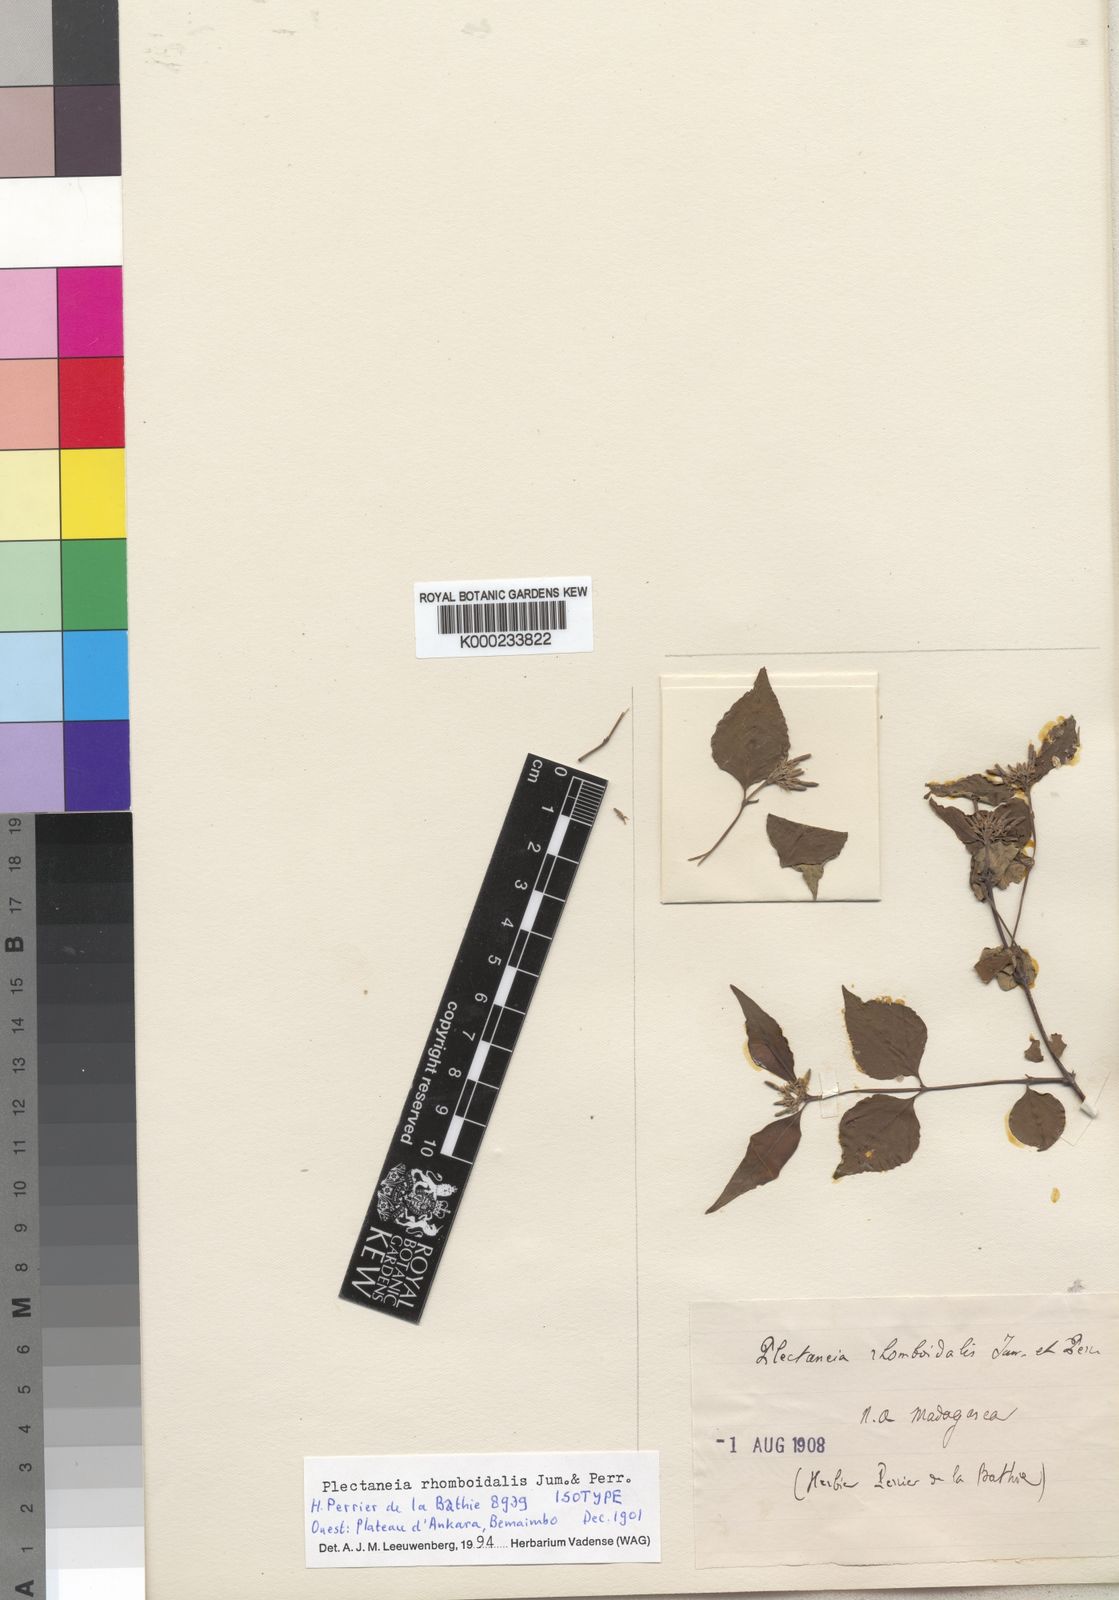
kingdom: Plantae
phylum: Tracheophyta
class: Magnoliopsida
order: Gentianales
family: Apocynaceae
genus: Plectaneia
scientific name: Plectaneia thouarsii
